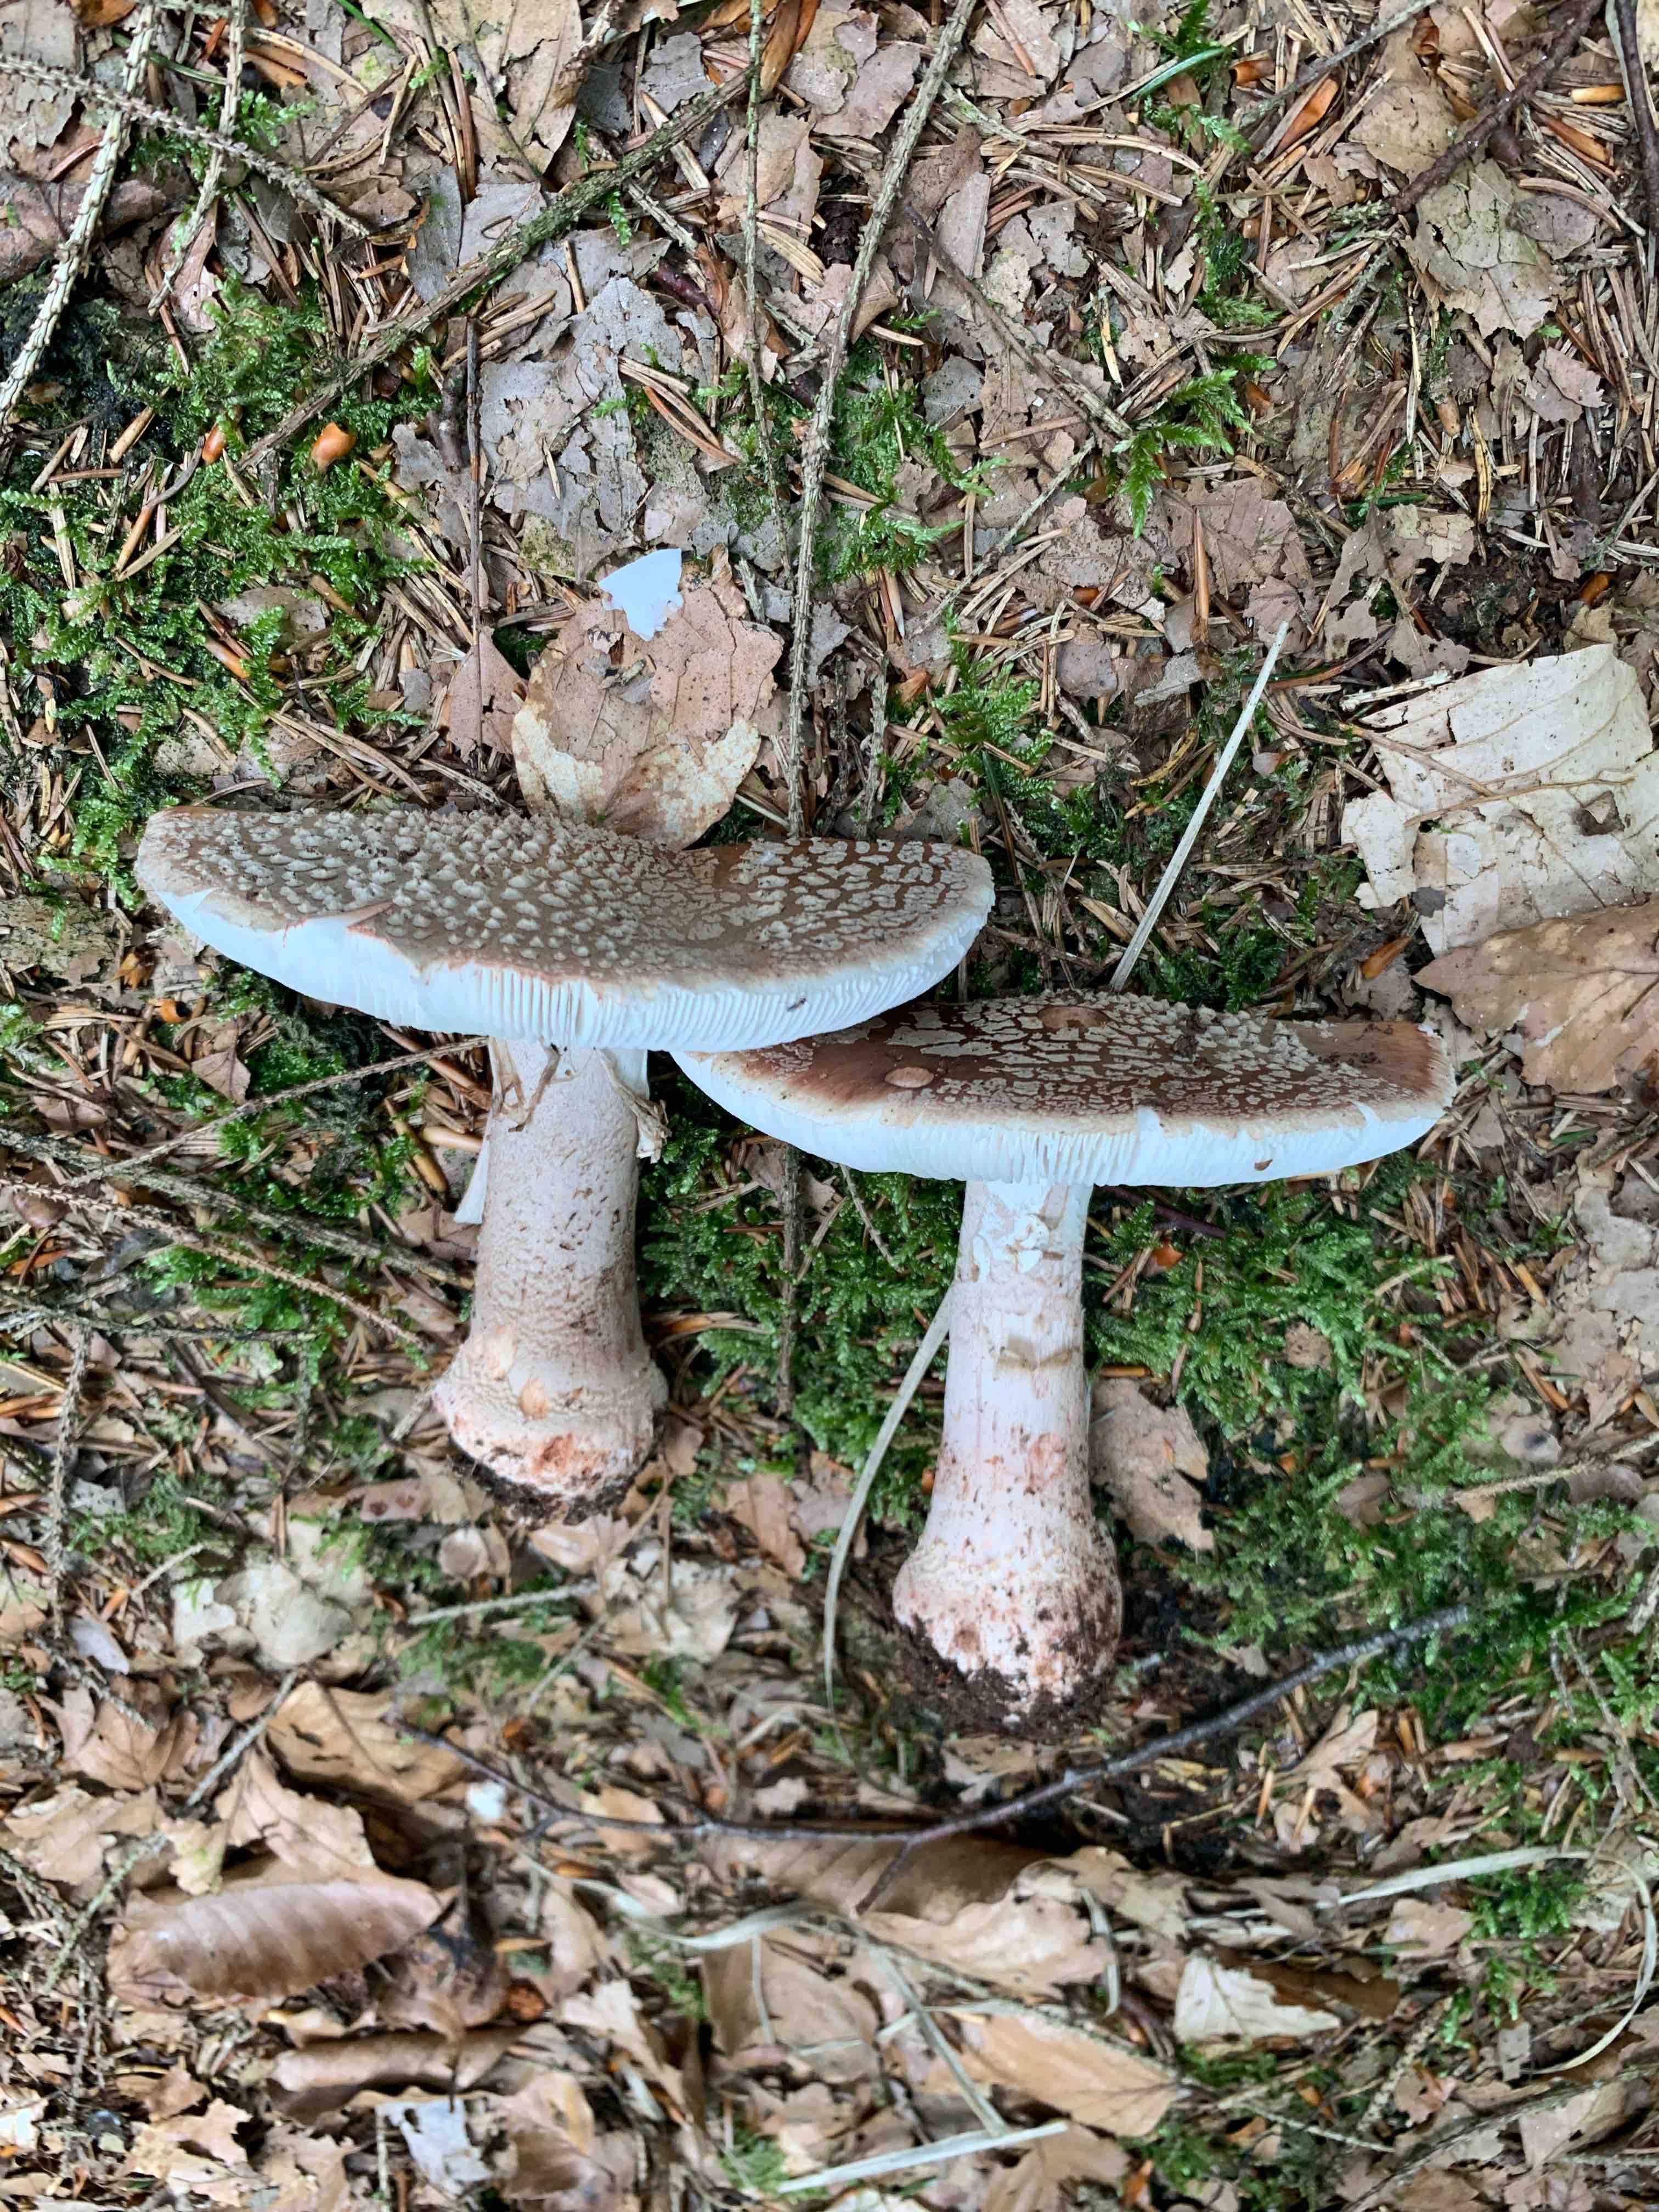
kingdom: Fungi
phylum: Basidiomycota
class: Agaricomycetes
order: Agaricales
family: Amanitaceae
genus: Amanita
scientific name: Amanita rubescens
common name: rødmende fluesvamp
